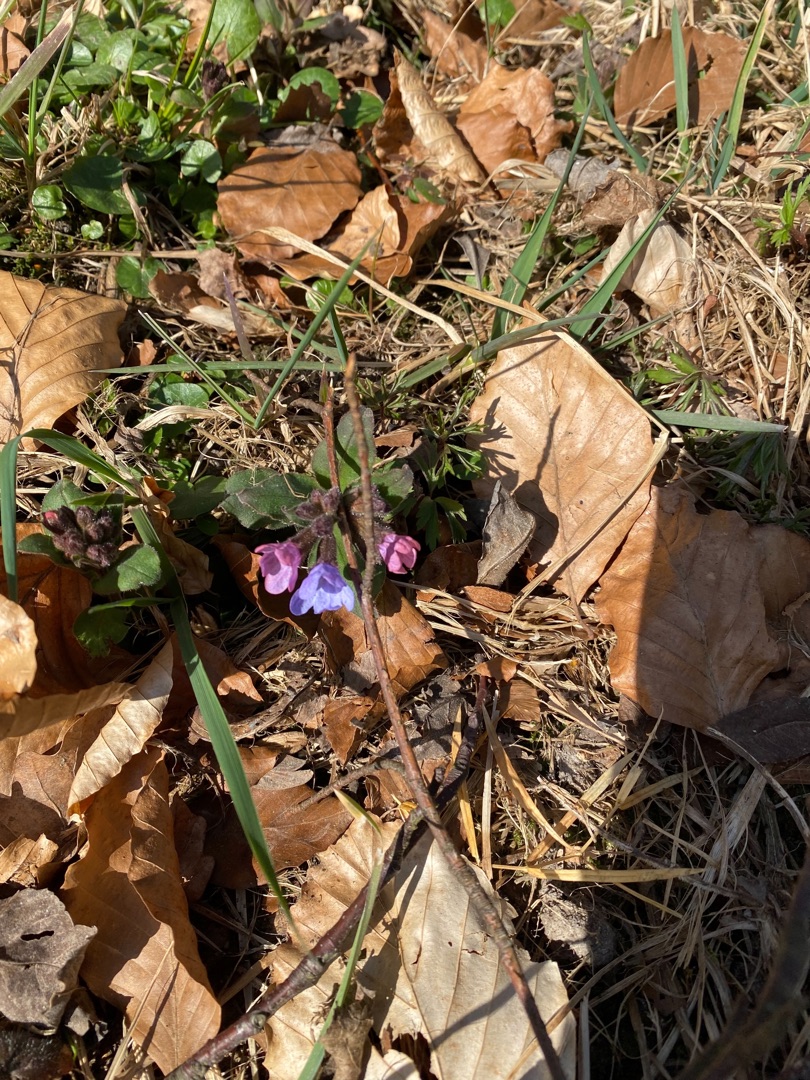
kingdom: Plantae
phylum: Tracheophyta
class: Magnoliopsida
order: Boraginales
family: Boraginaceae
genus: Pulmonaria
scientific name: Pulmonaria obscura
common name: Almindelig lungeurt
